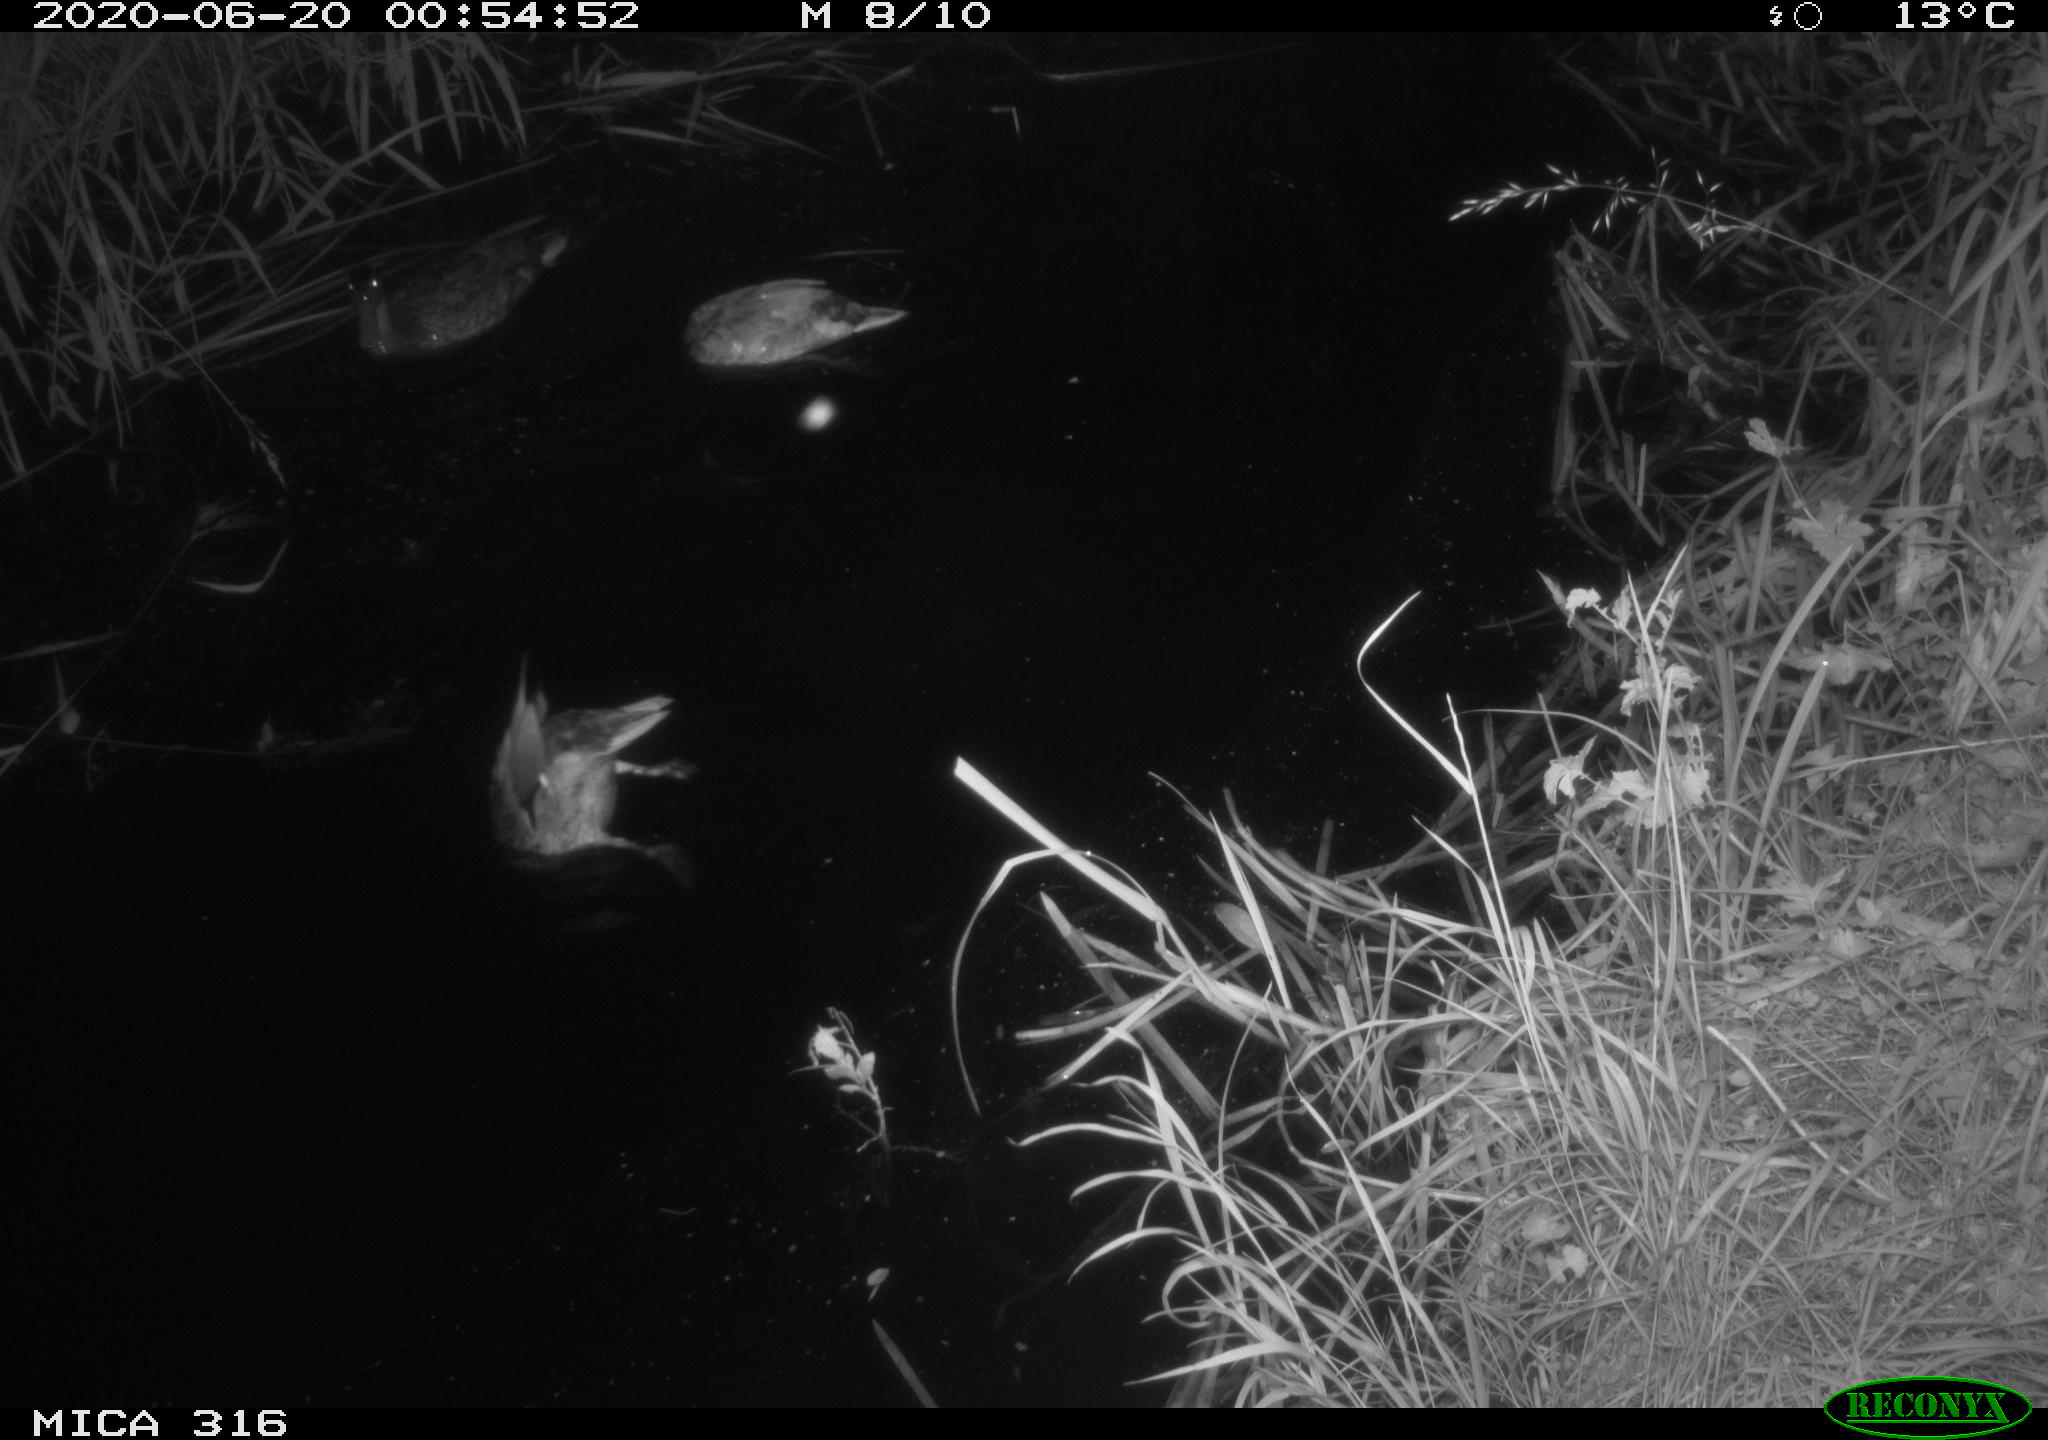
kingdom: Animalia
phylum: Chordata
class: Aves
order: Anseriformes
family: Anatidae
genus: Anas
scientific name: Anas platyrhynchos
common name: Mallard
